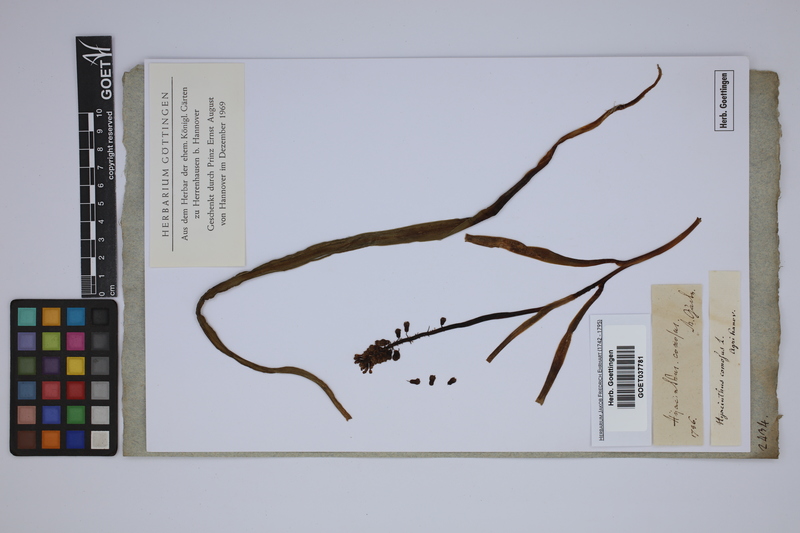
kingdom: Plantae
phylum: Tracheophyta
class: Liliopsida
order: Asparagales
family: Asparagaceae
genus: Muscari
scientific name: Muscari comosum
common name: Tassel hyacinth
